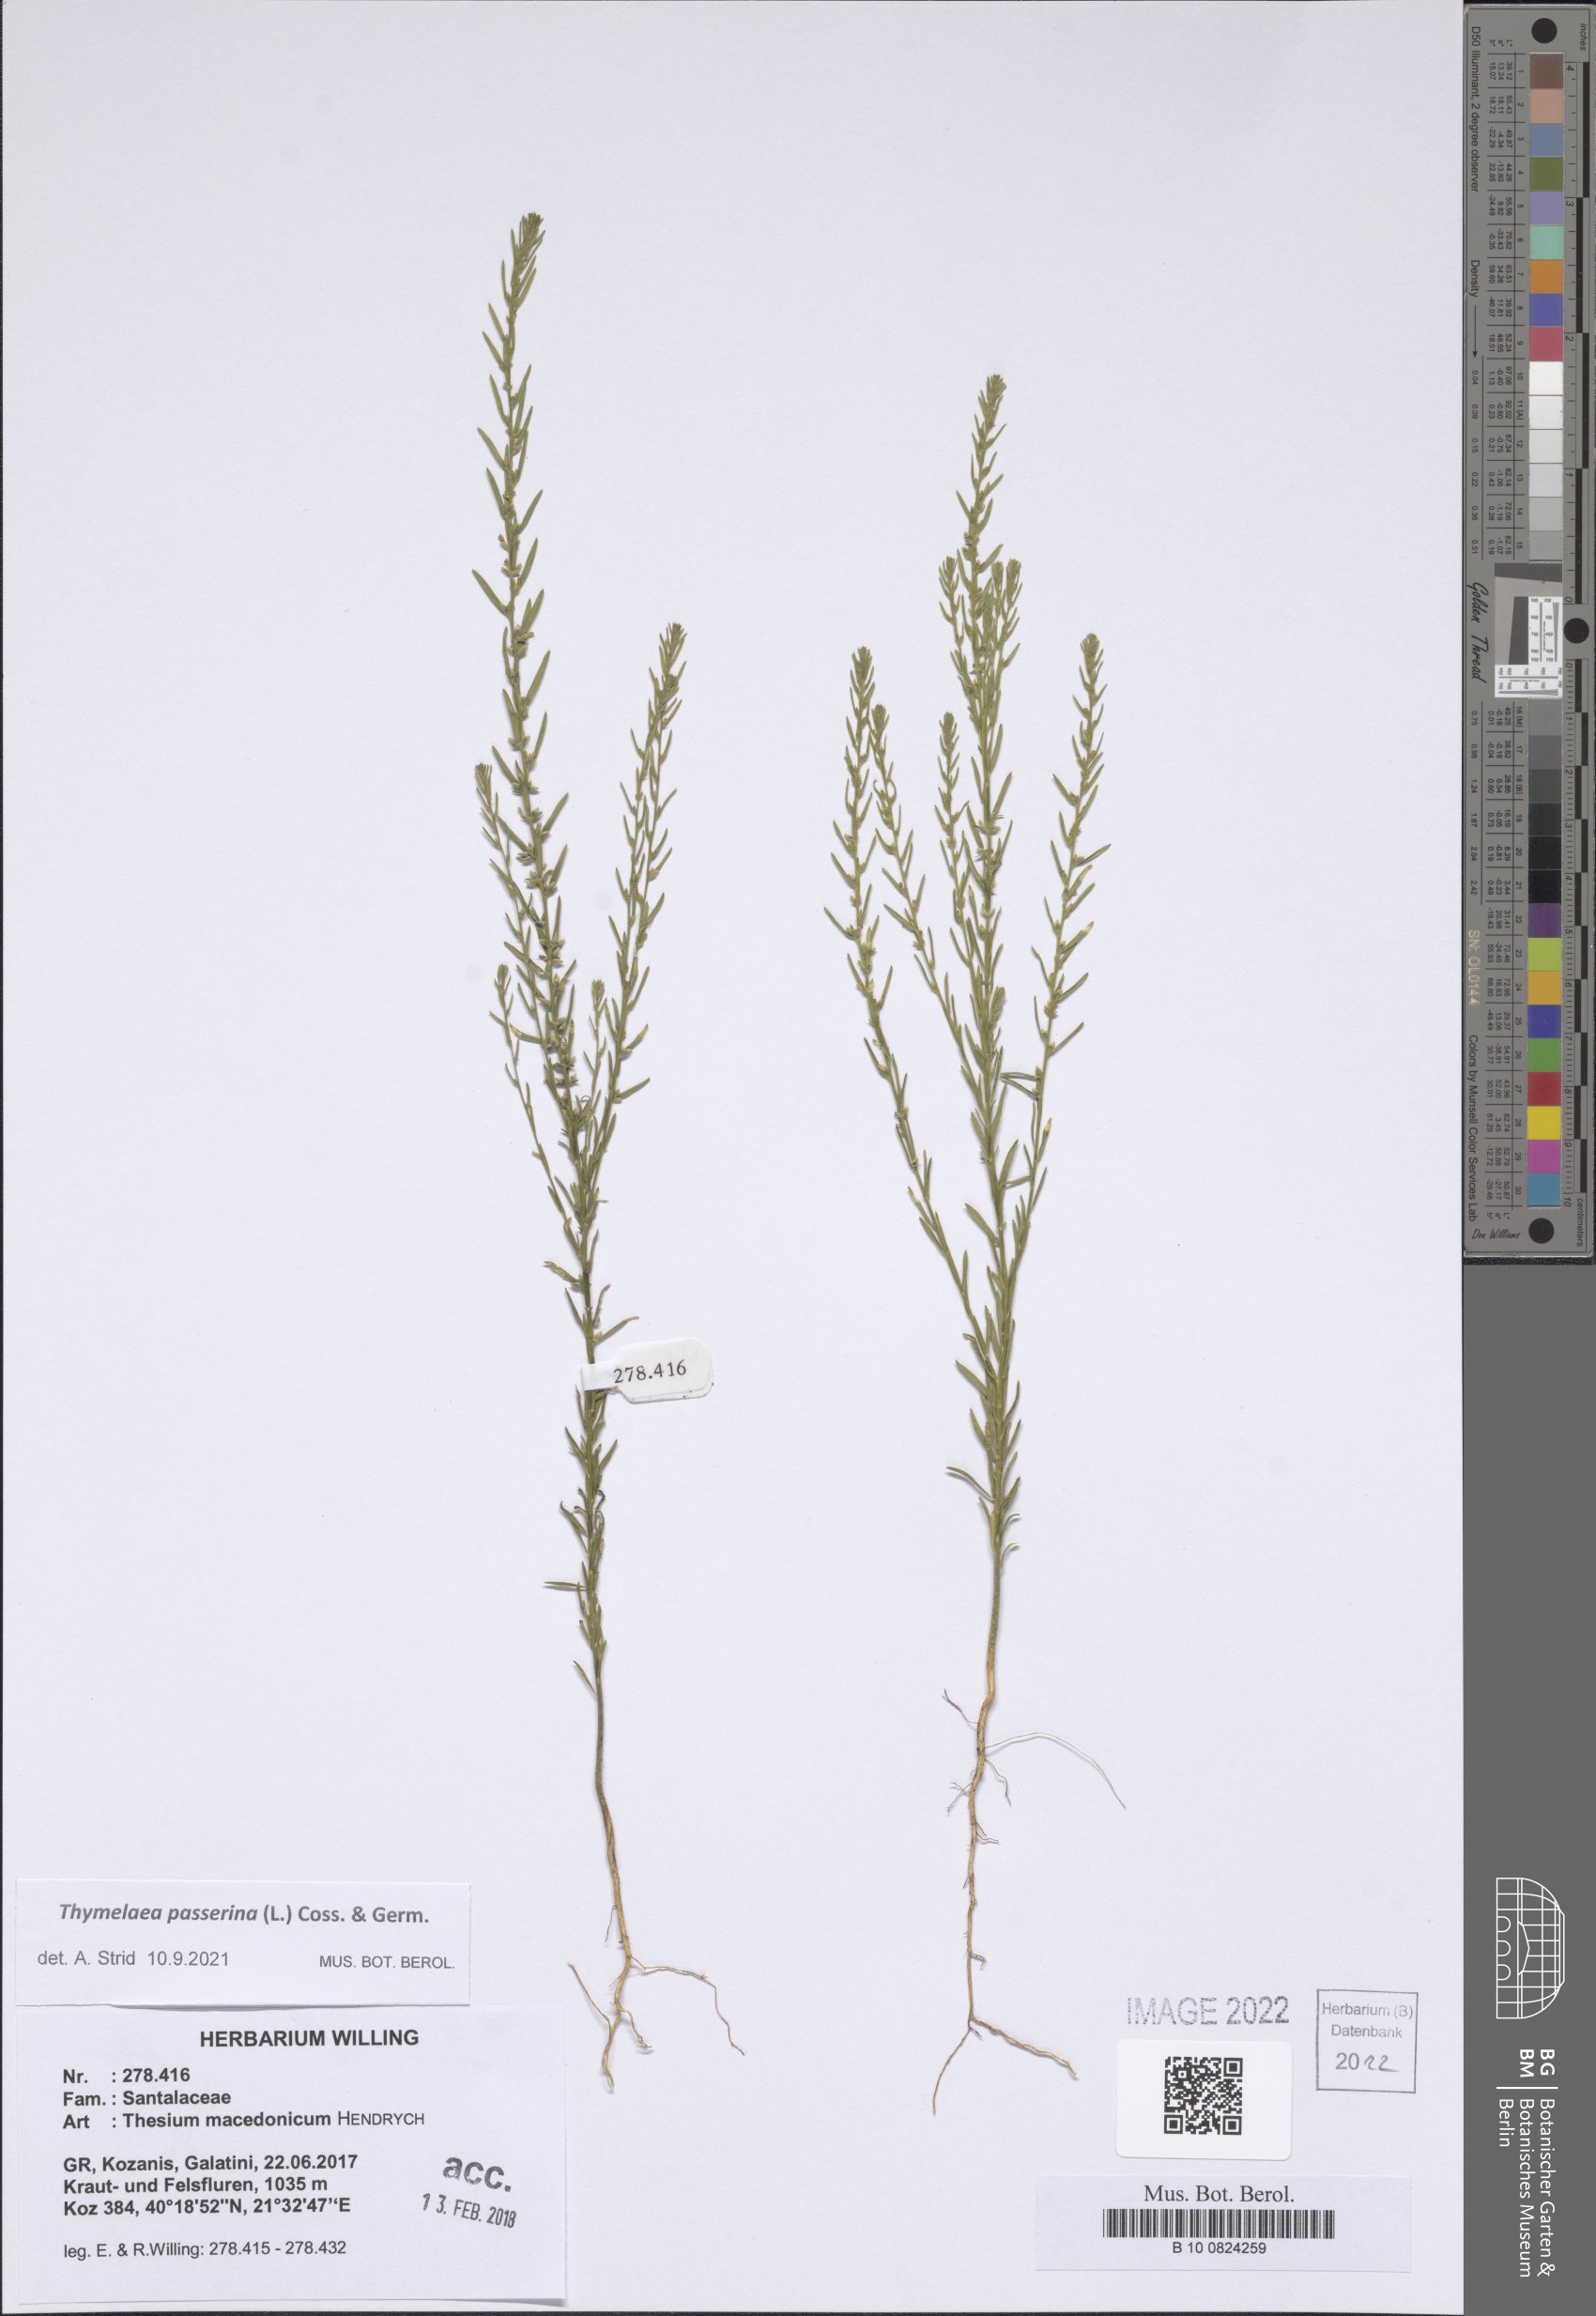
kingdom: Plantae
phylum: Tracheophyta
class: Magnoliopsida
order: Malvales
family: Thymelaeaceae
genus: Thymelaea
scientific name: Thymelaea passerina
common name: Annual thymelaea
